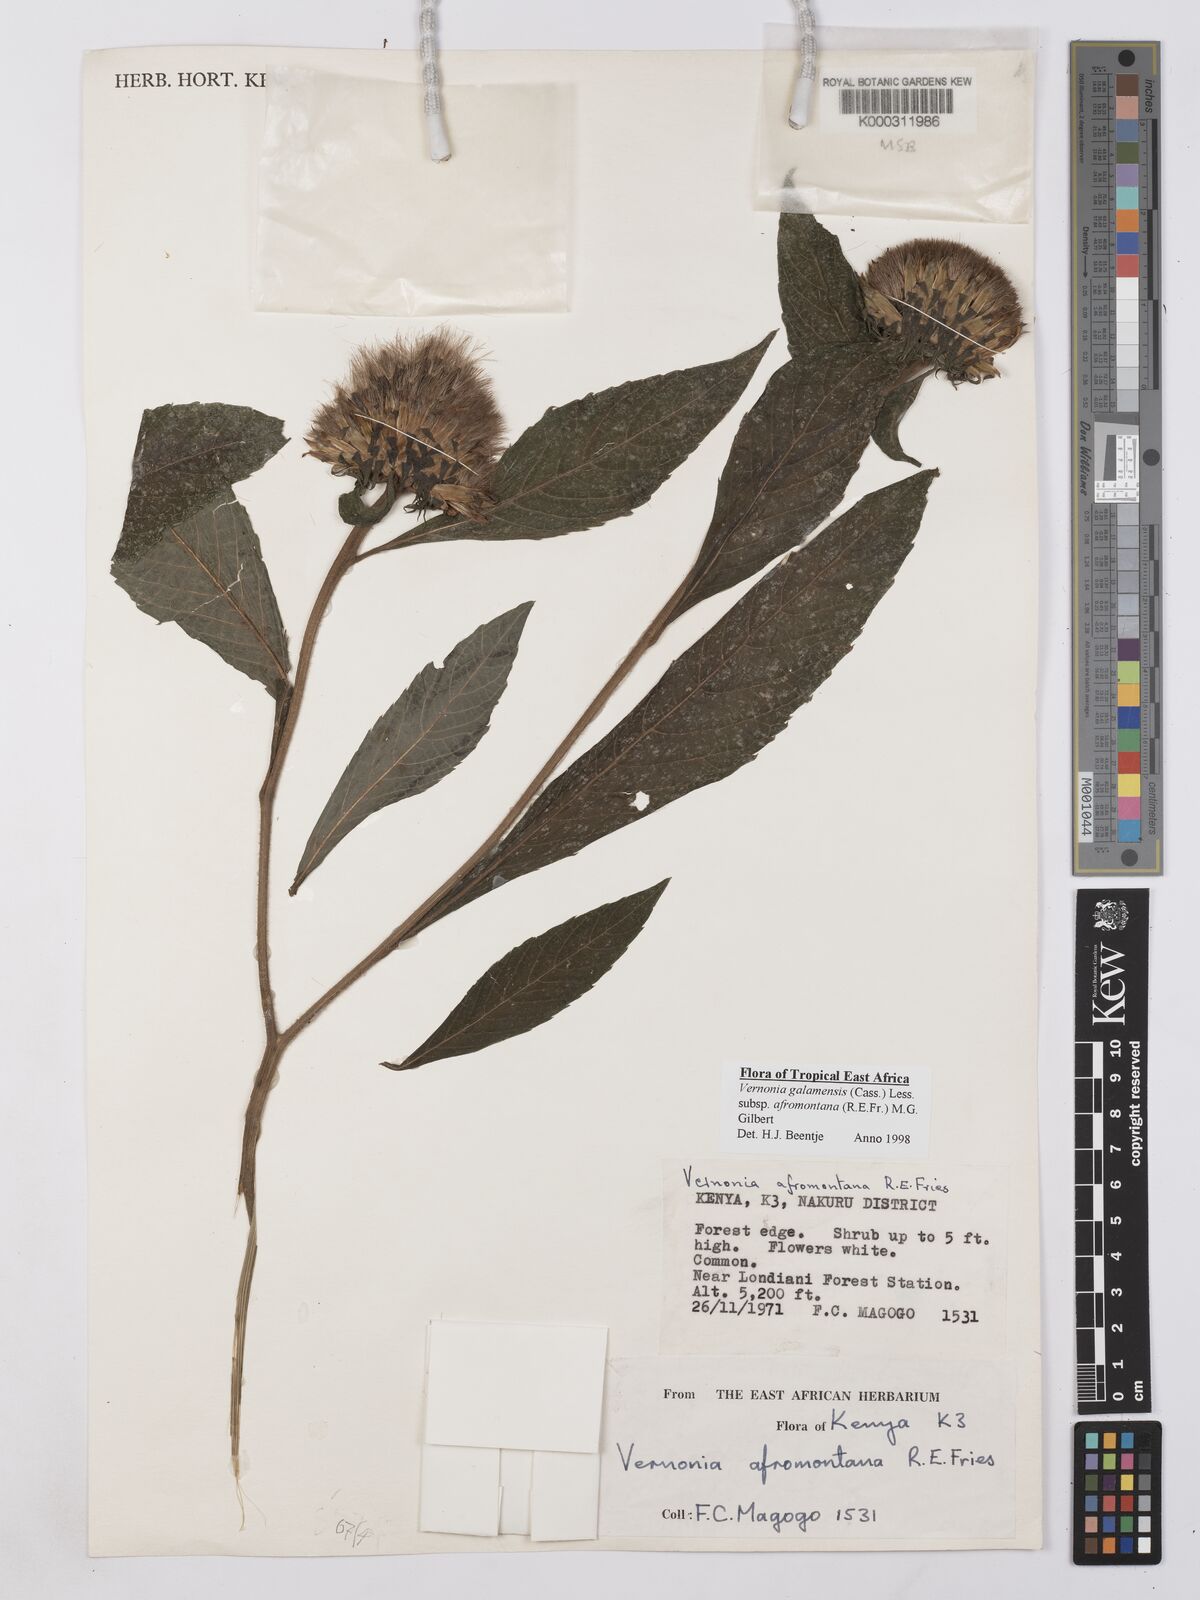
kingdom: Plantae
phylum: Tracheophyta
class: Magnoliopsida
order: Asterales
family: Asteraceae
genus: Vernonia
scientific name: Vernonia galamensis
